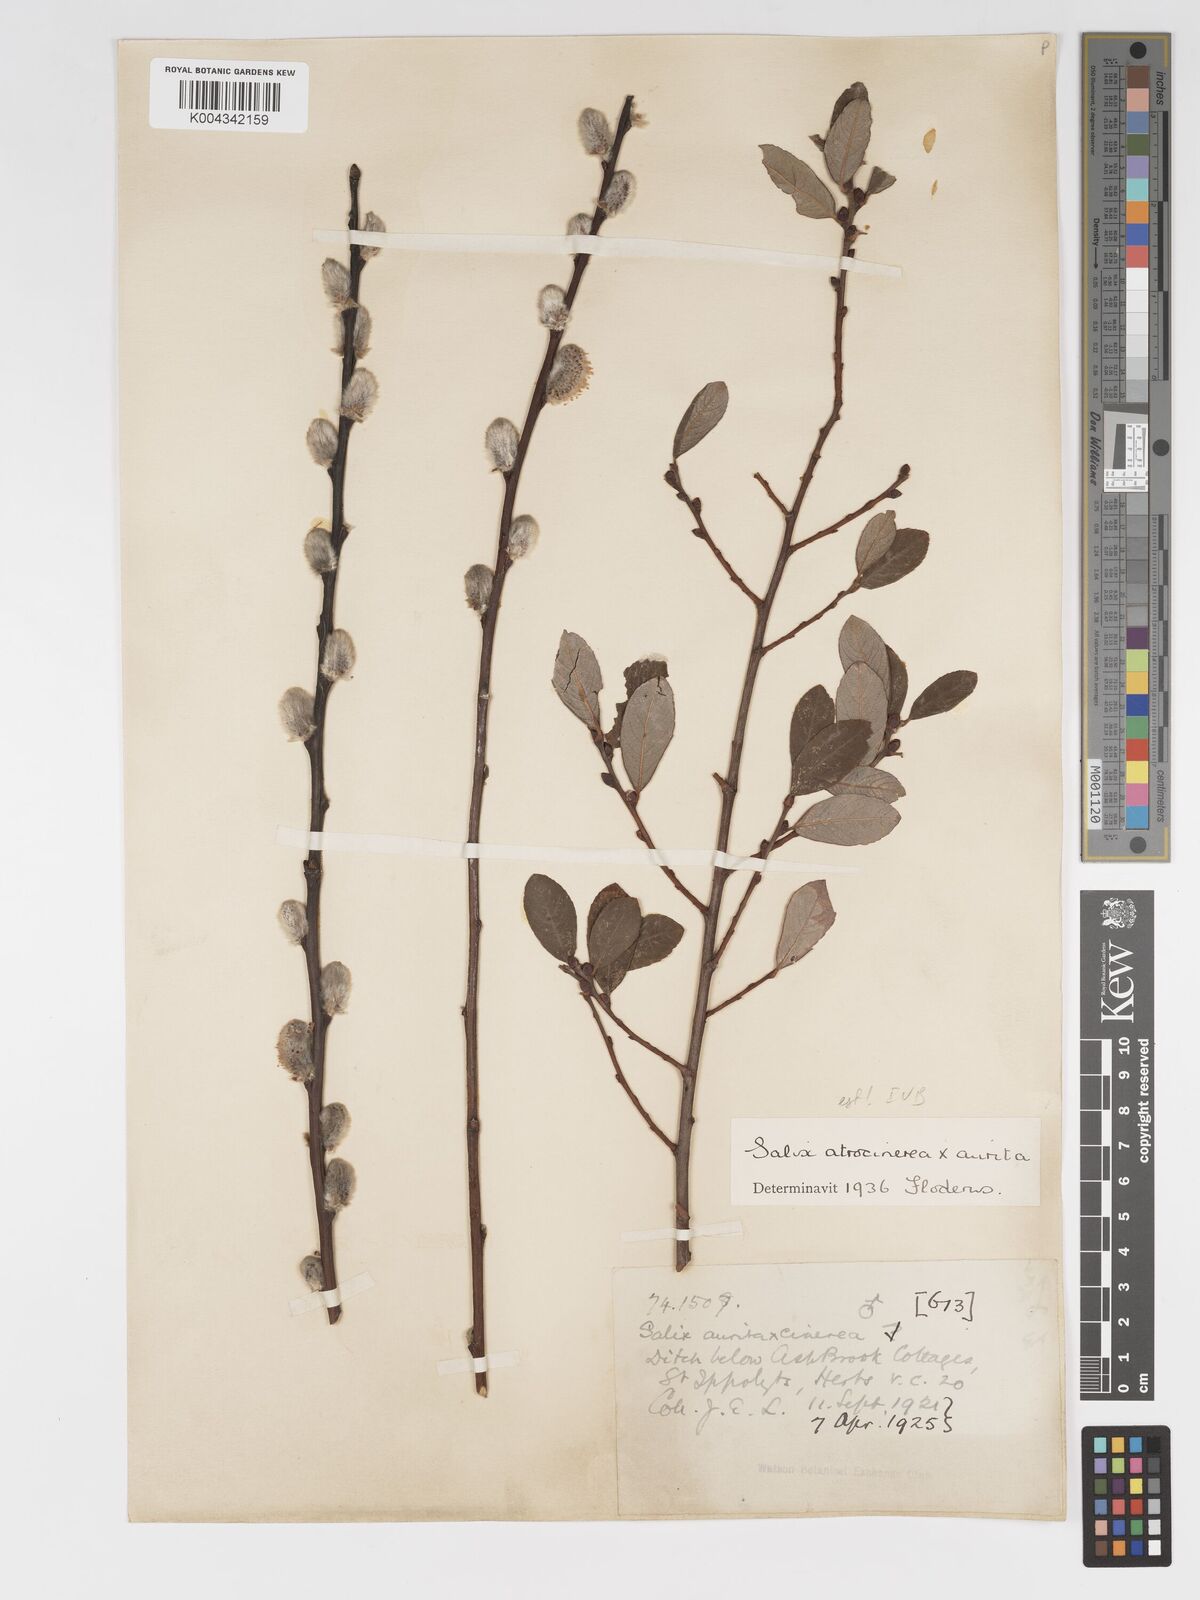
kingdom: Plantae
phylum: Tracheophyta
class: Magnoliopsida
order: Malpighiales
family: Salicaceae
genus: Salix
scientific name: Salix
